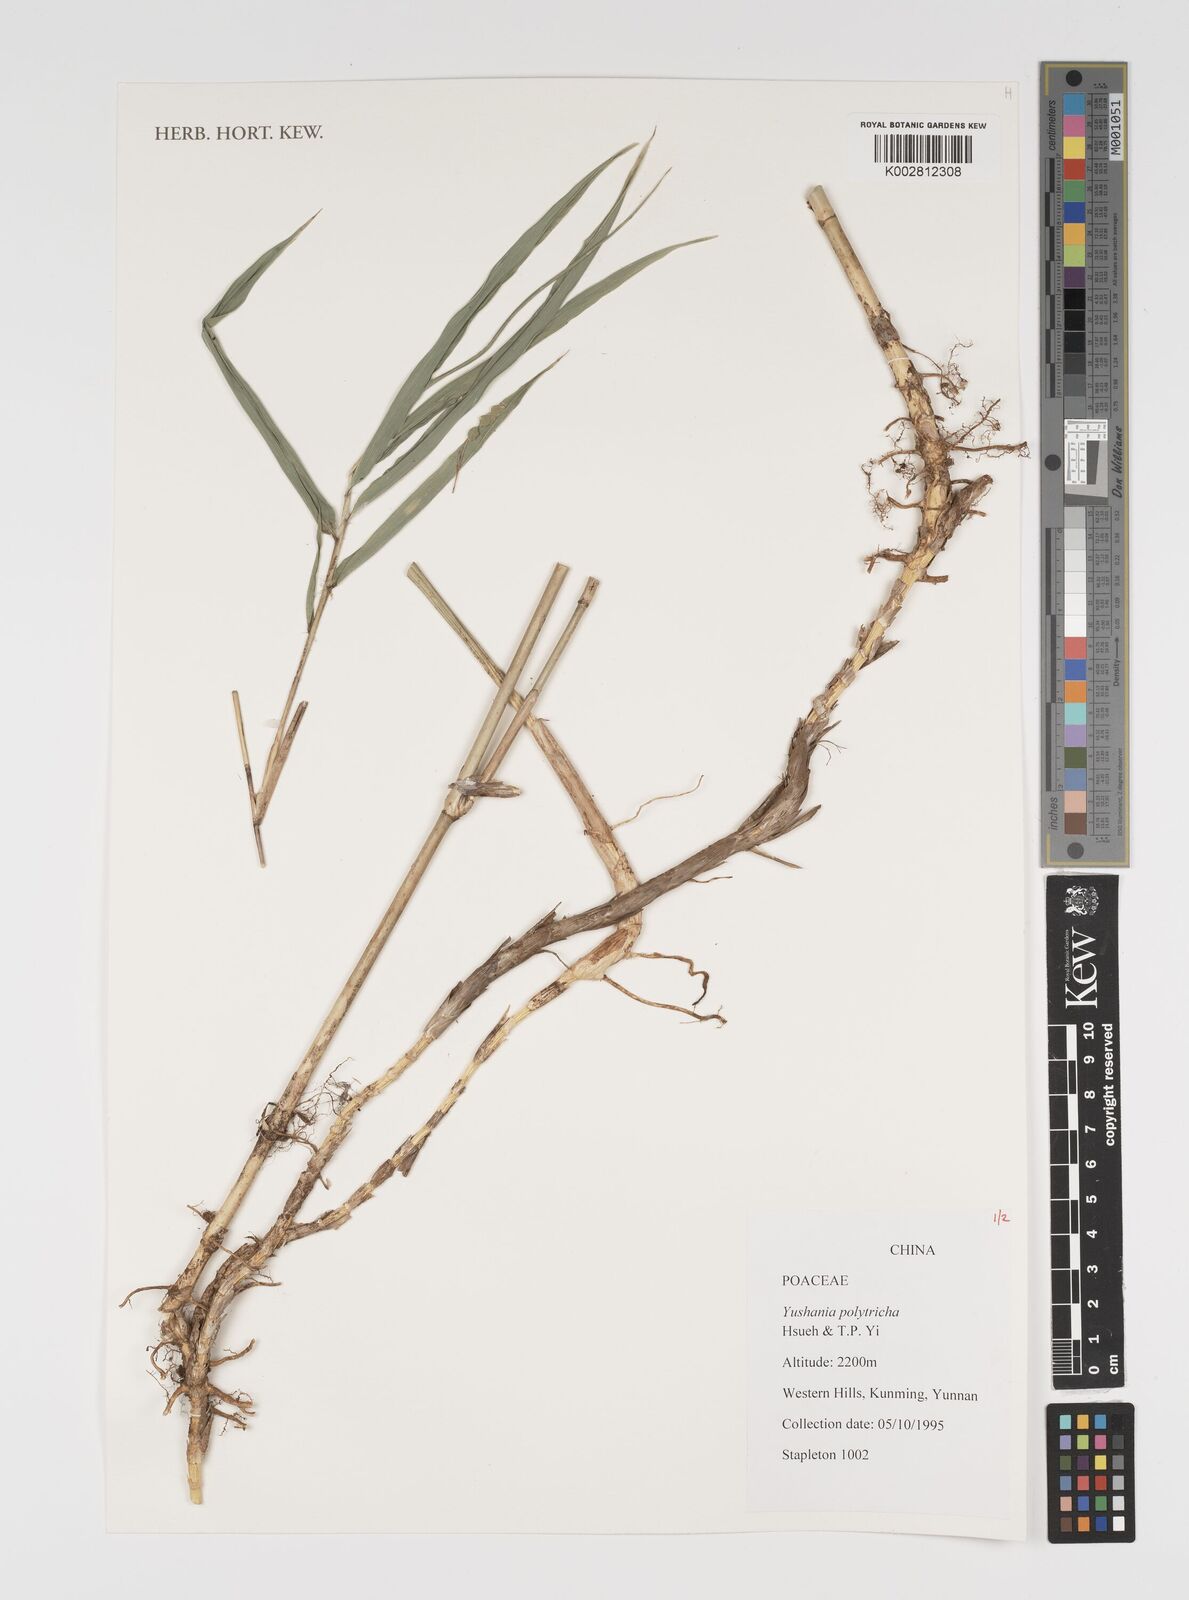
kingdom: Plantae
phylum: Tracheophyta
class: Liliopsida
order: Poales
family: Poaceae
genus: Yushania
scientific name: Yushania polytricha
